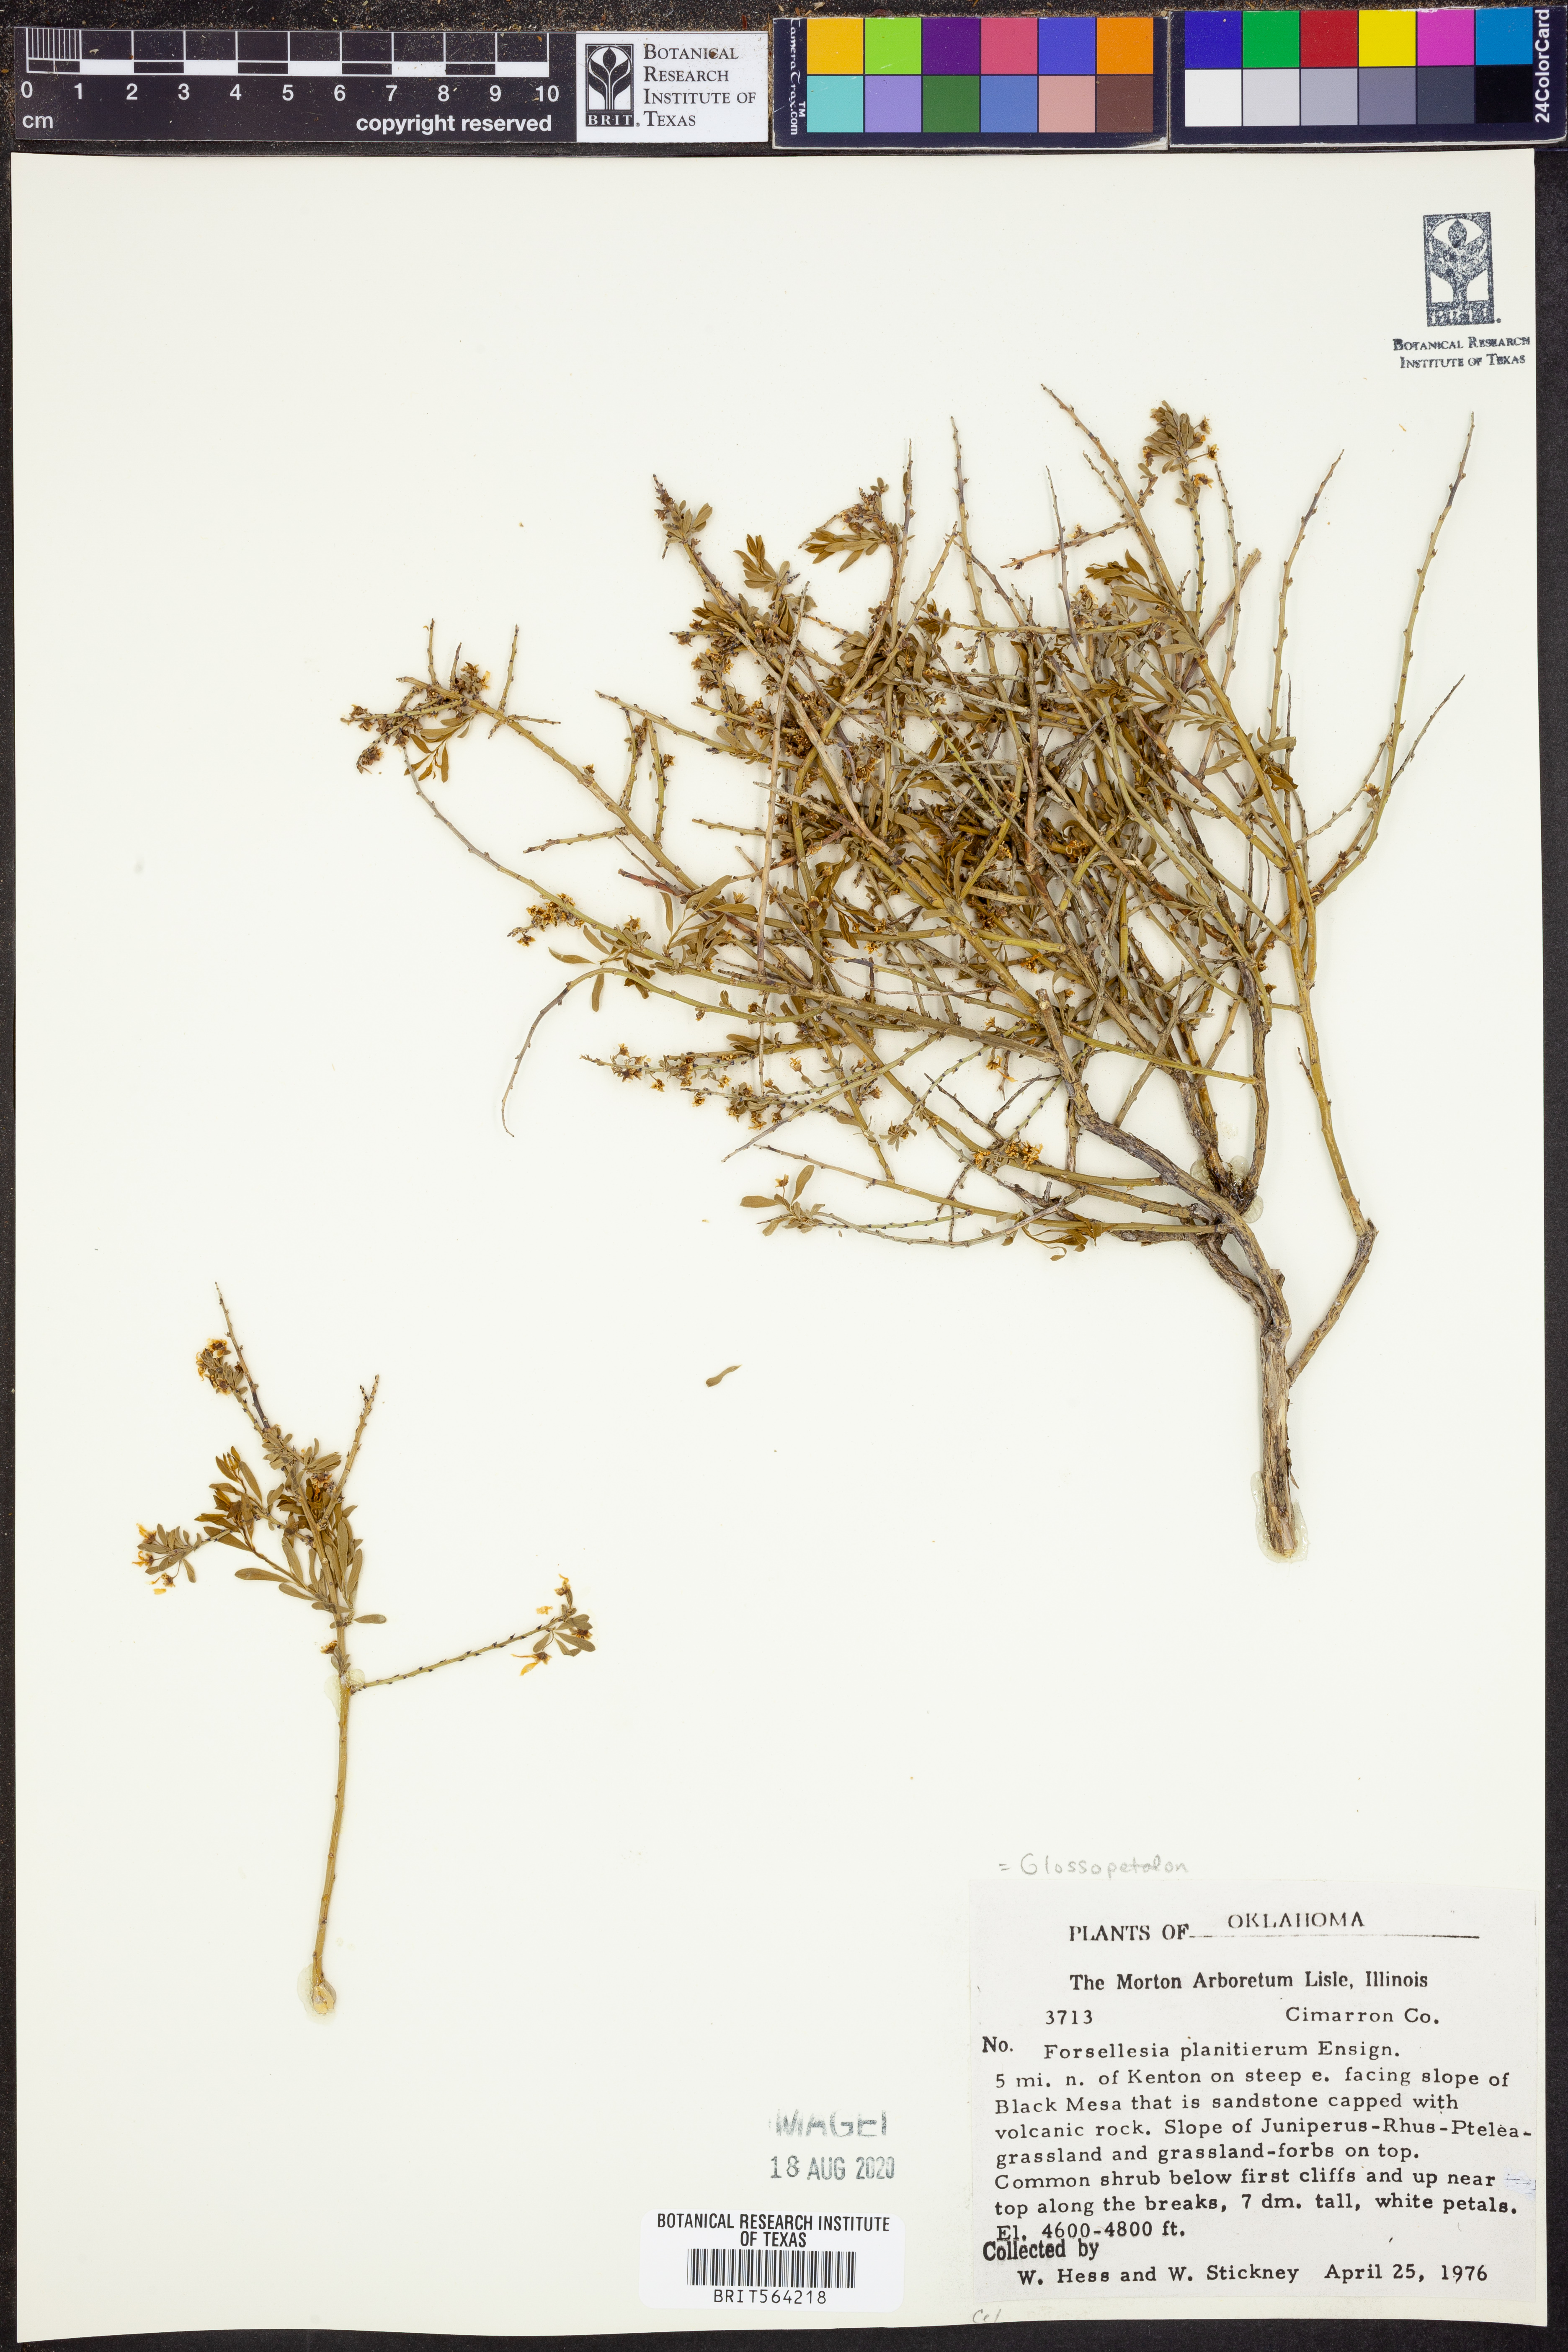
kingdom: Plantae
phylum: Tracheophyta
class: Magnoliopsida
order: Crossosomatales
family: Crossosomataceae
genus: Glossopetalon
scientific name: Glossopetalon spinescens
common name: Spring greasebush
